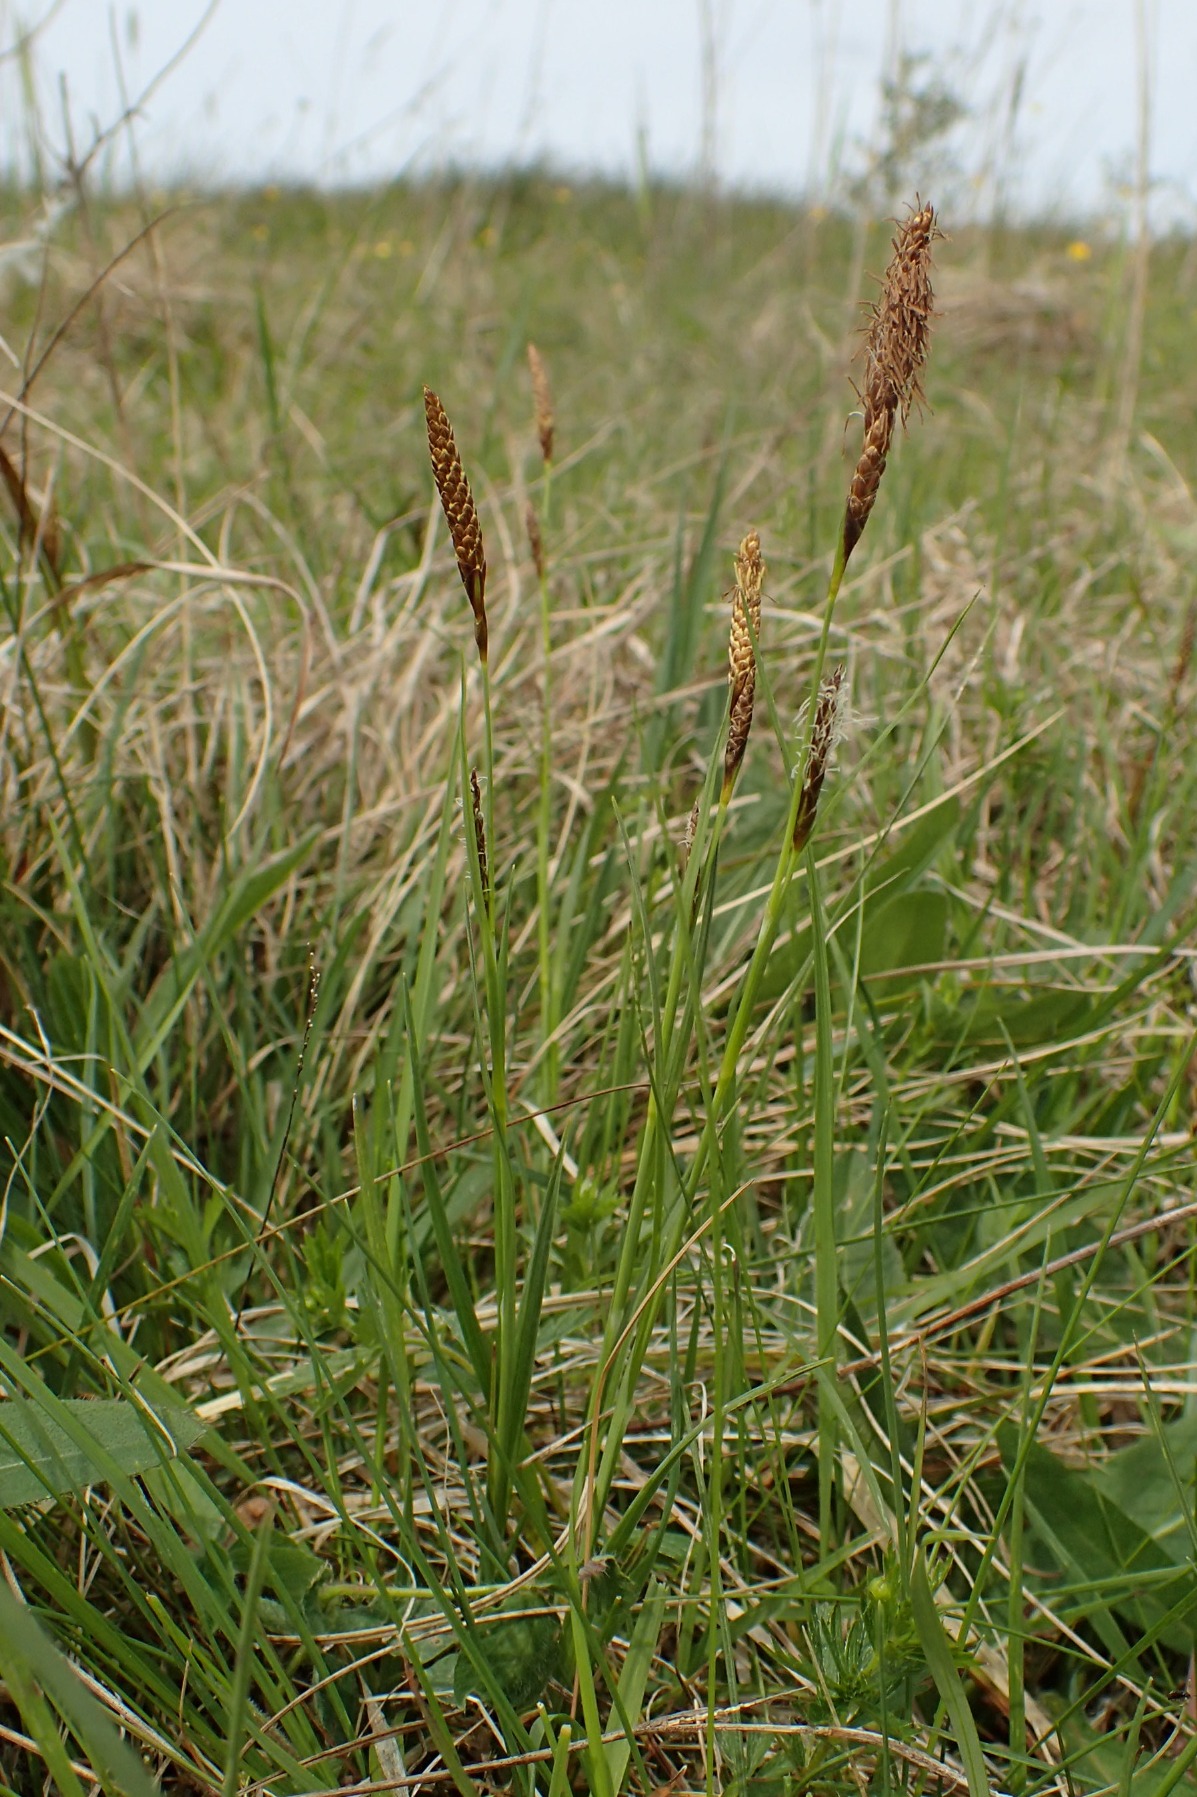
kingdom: Plantae
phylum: Tracheophyta
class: Liliopsida
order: Poales
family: Cyperaceae
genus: Carex
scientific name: Carex hostiana
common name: Skede-star
